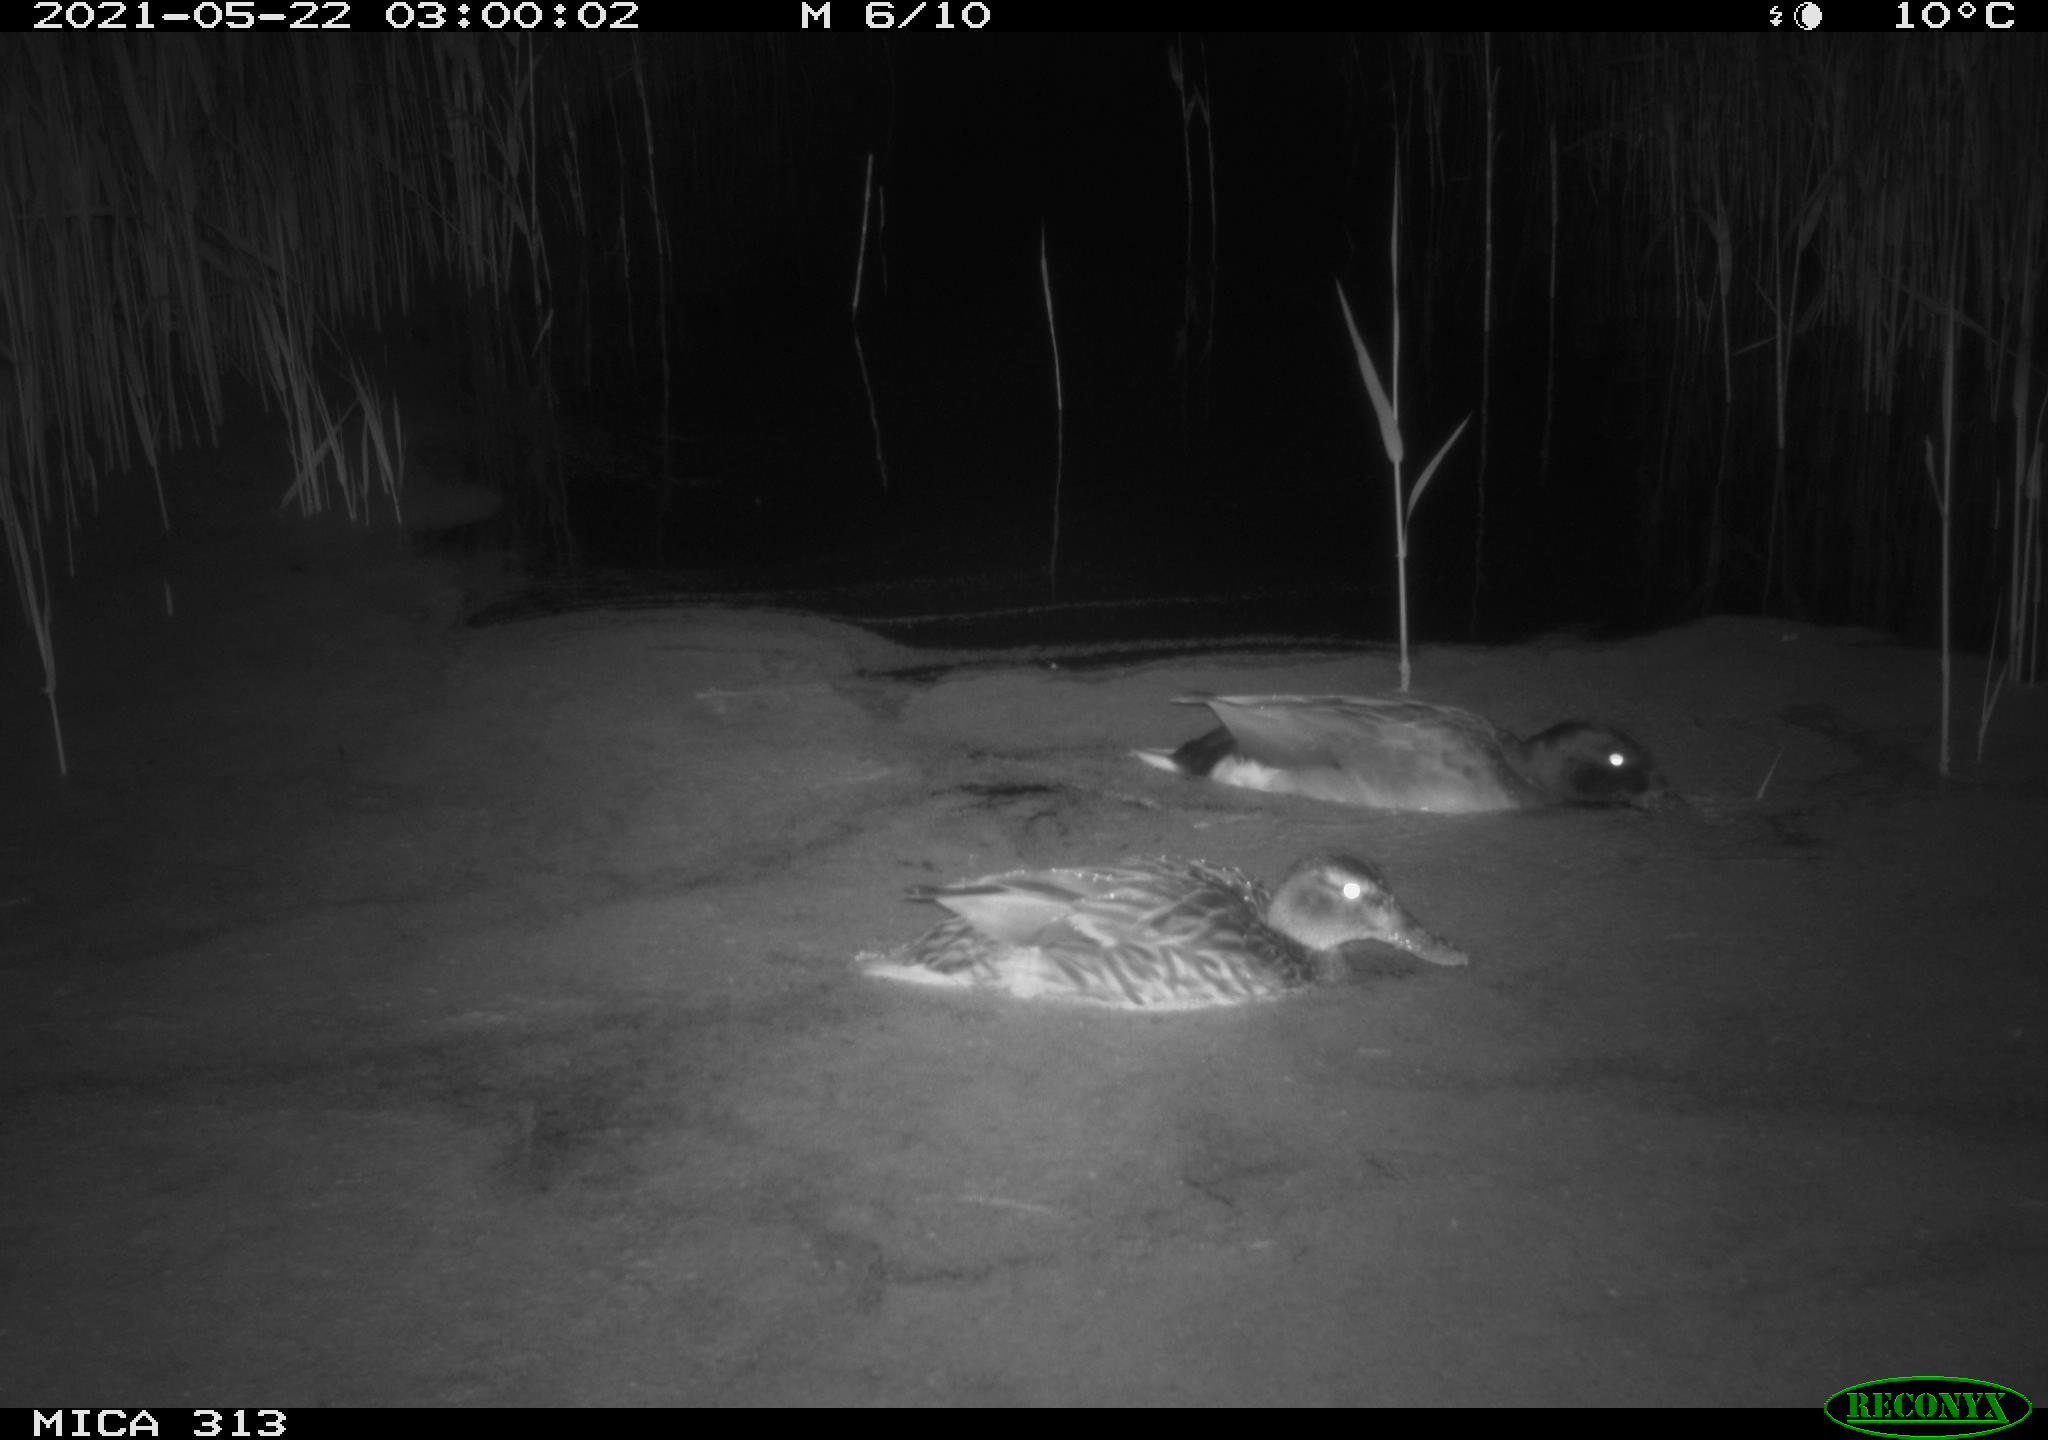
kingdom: Animalia
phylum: Chordata
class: Aves
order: Anseriformes
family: Anatidae
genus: Anas
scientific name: Anas platyrhynchos
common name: Mallard
